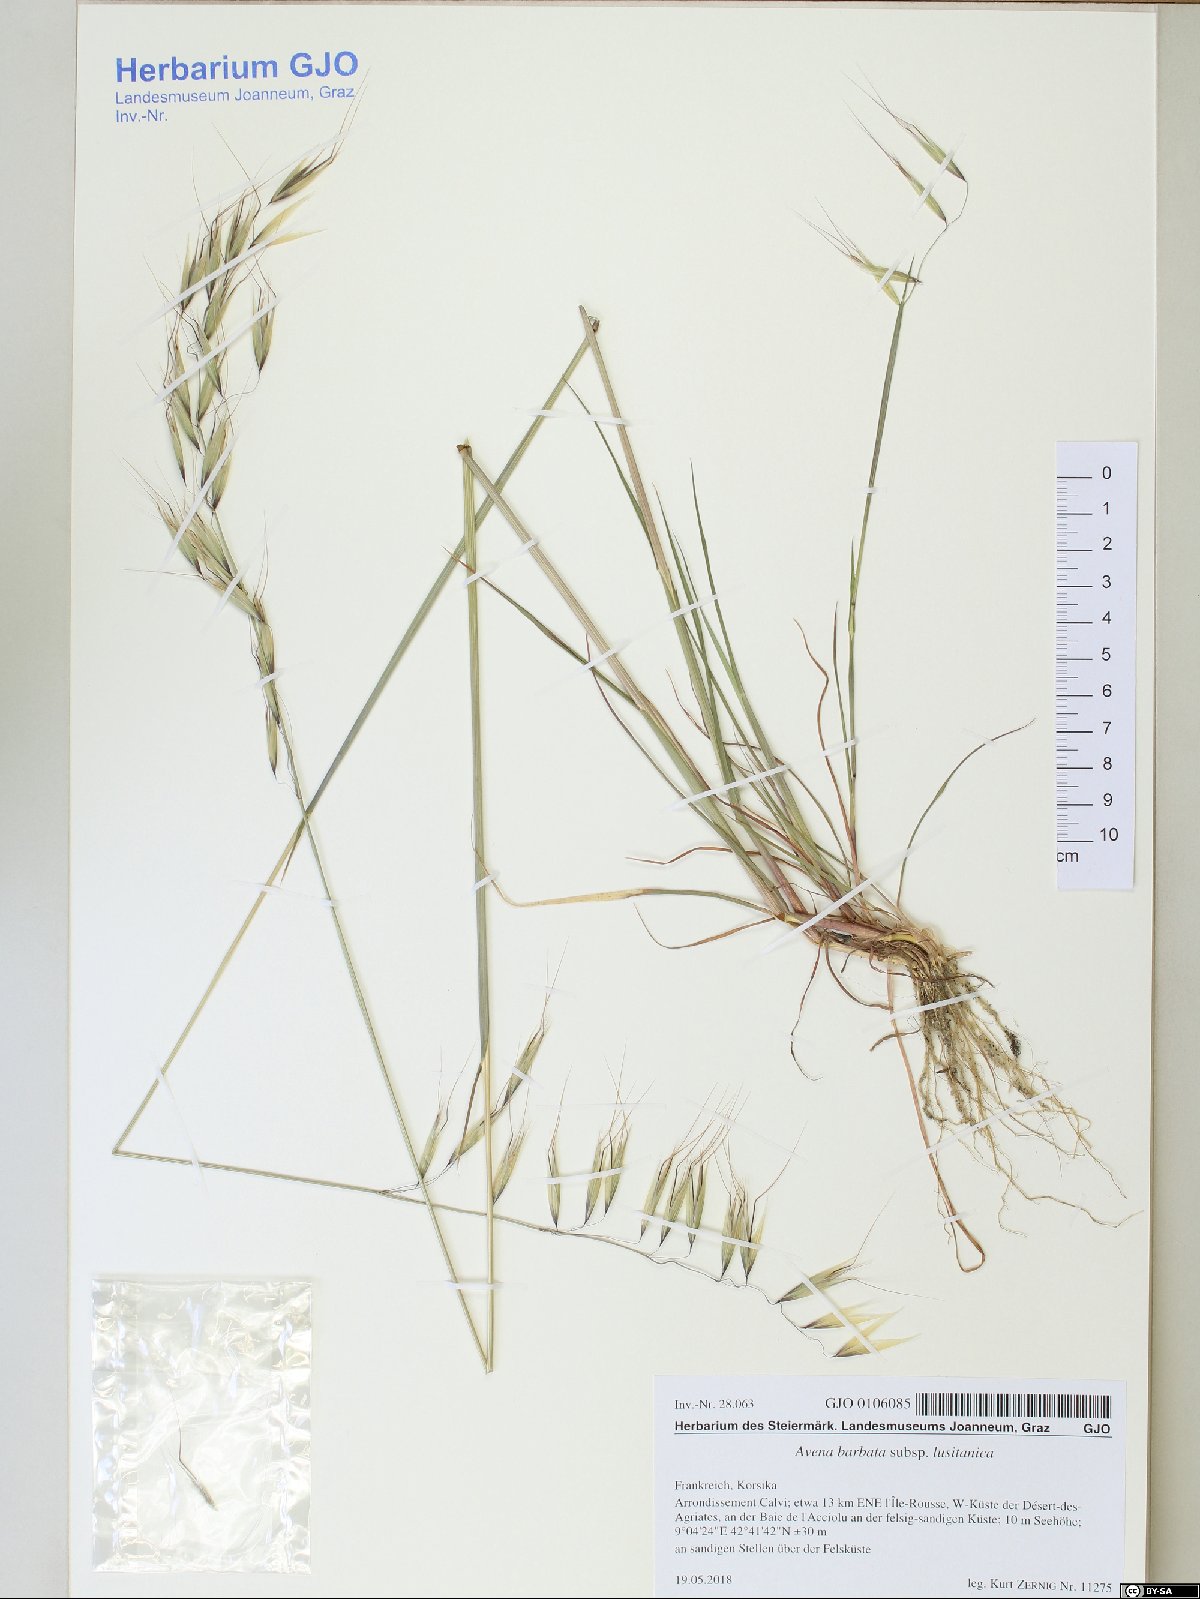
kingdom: Plantae
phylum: Tracheophyta
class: Liliopsida
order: Poales
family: Poaceae
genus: Avena
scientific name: Avena barbata
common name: Slender oat
